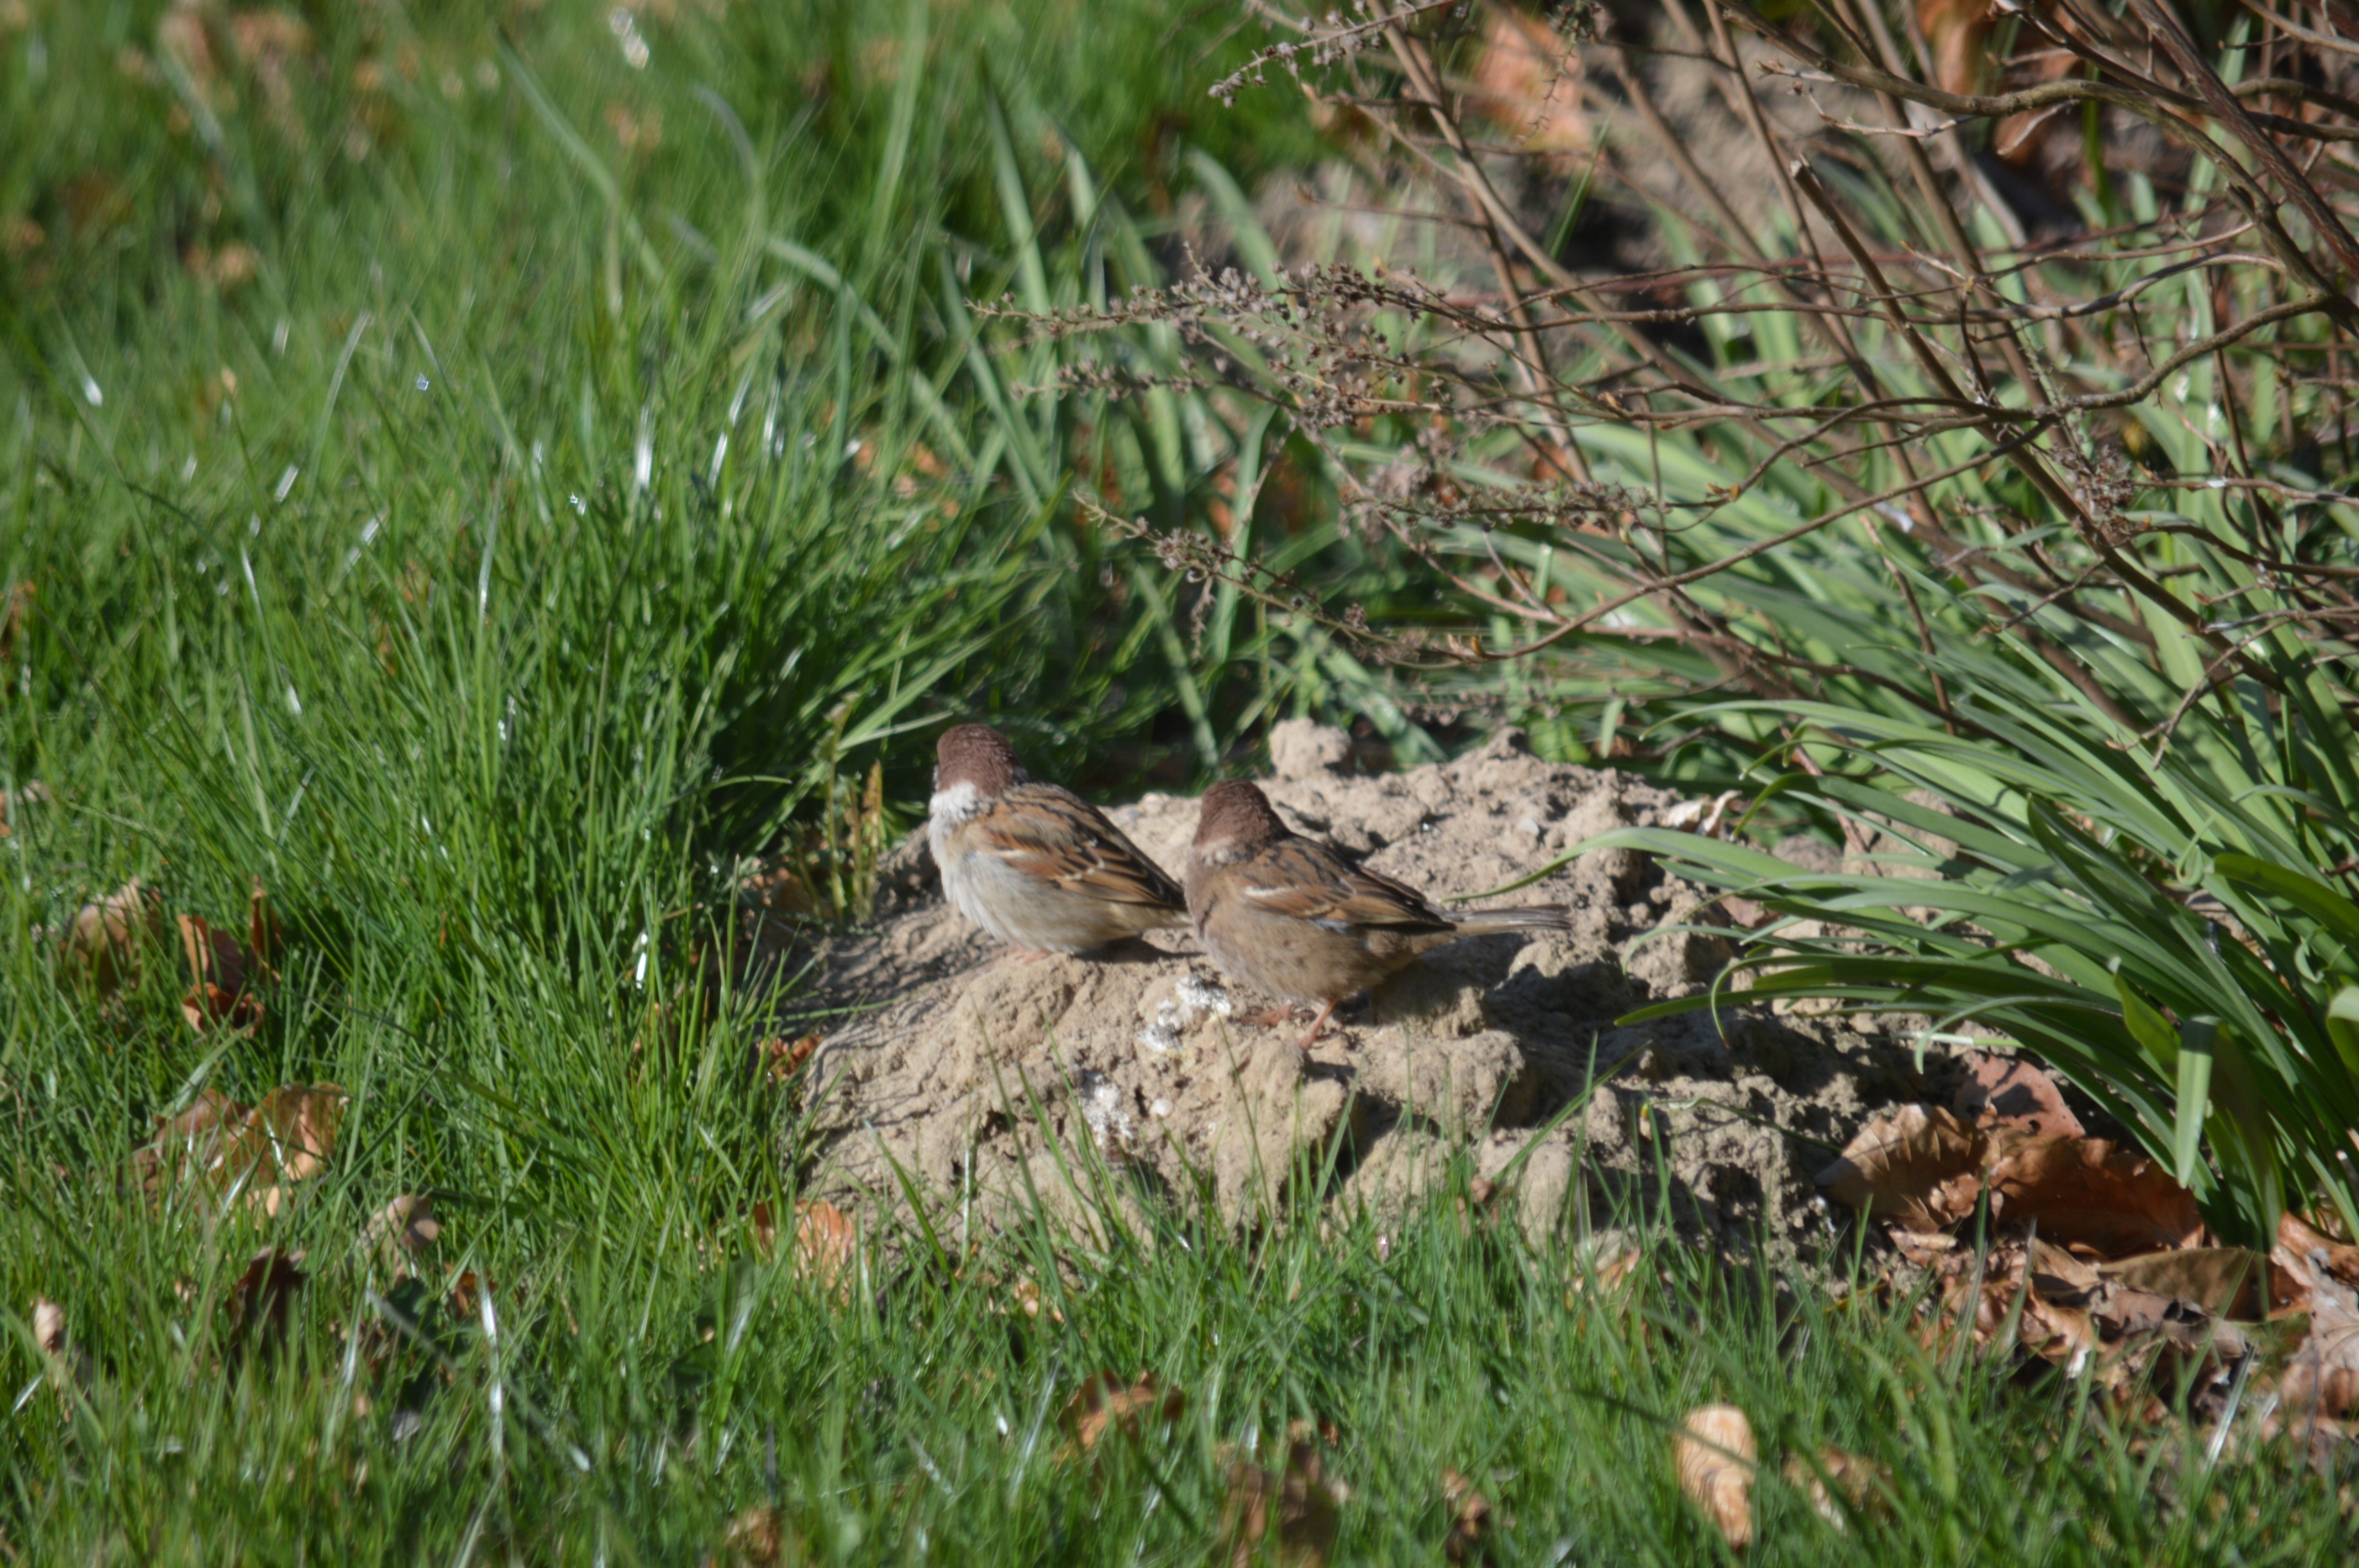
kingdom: Animalia
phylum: Chordata
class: Aves
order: Passeriformes
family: Passeridae
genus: Passer
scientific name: Passer montanus
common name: Skovspurv
